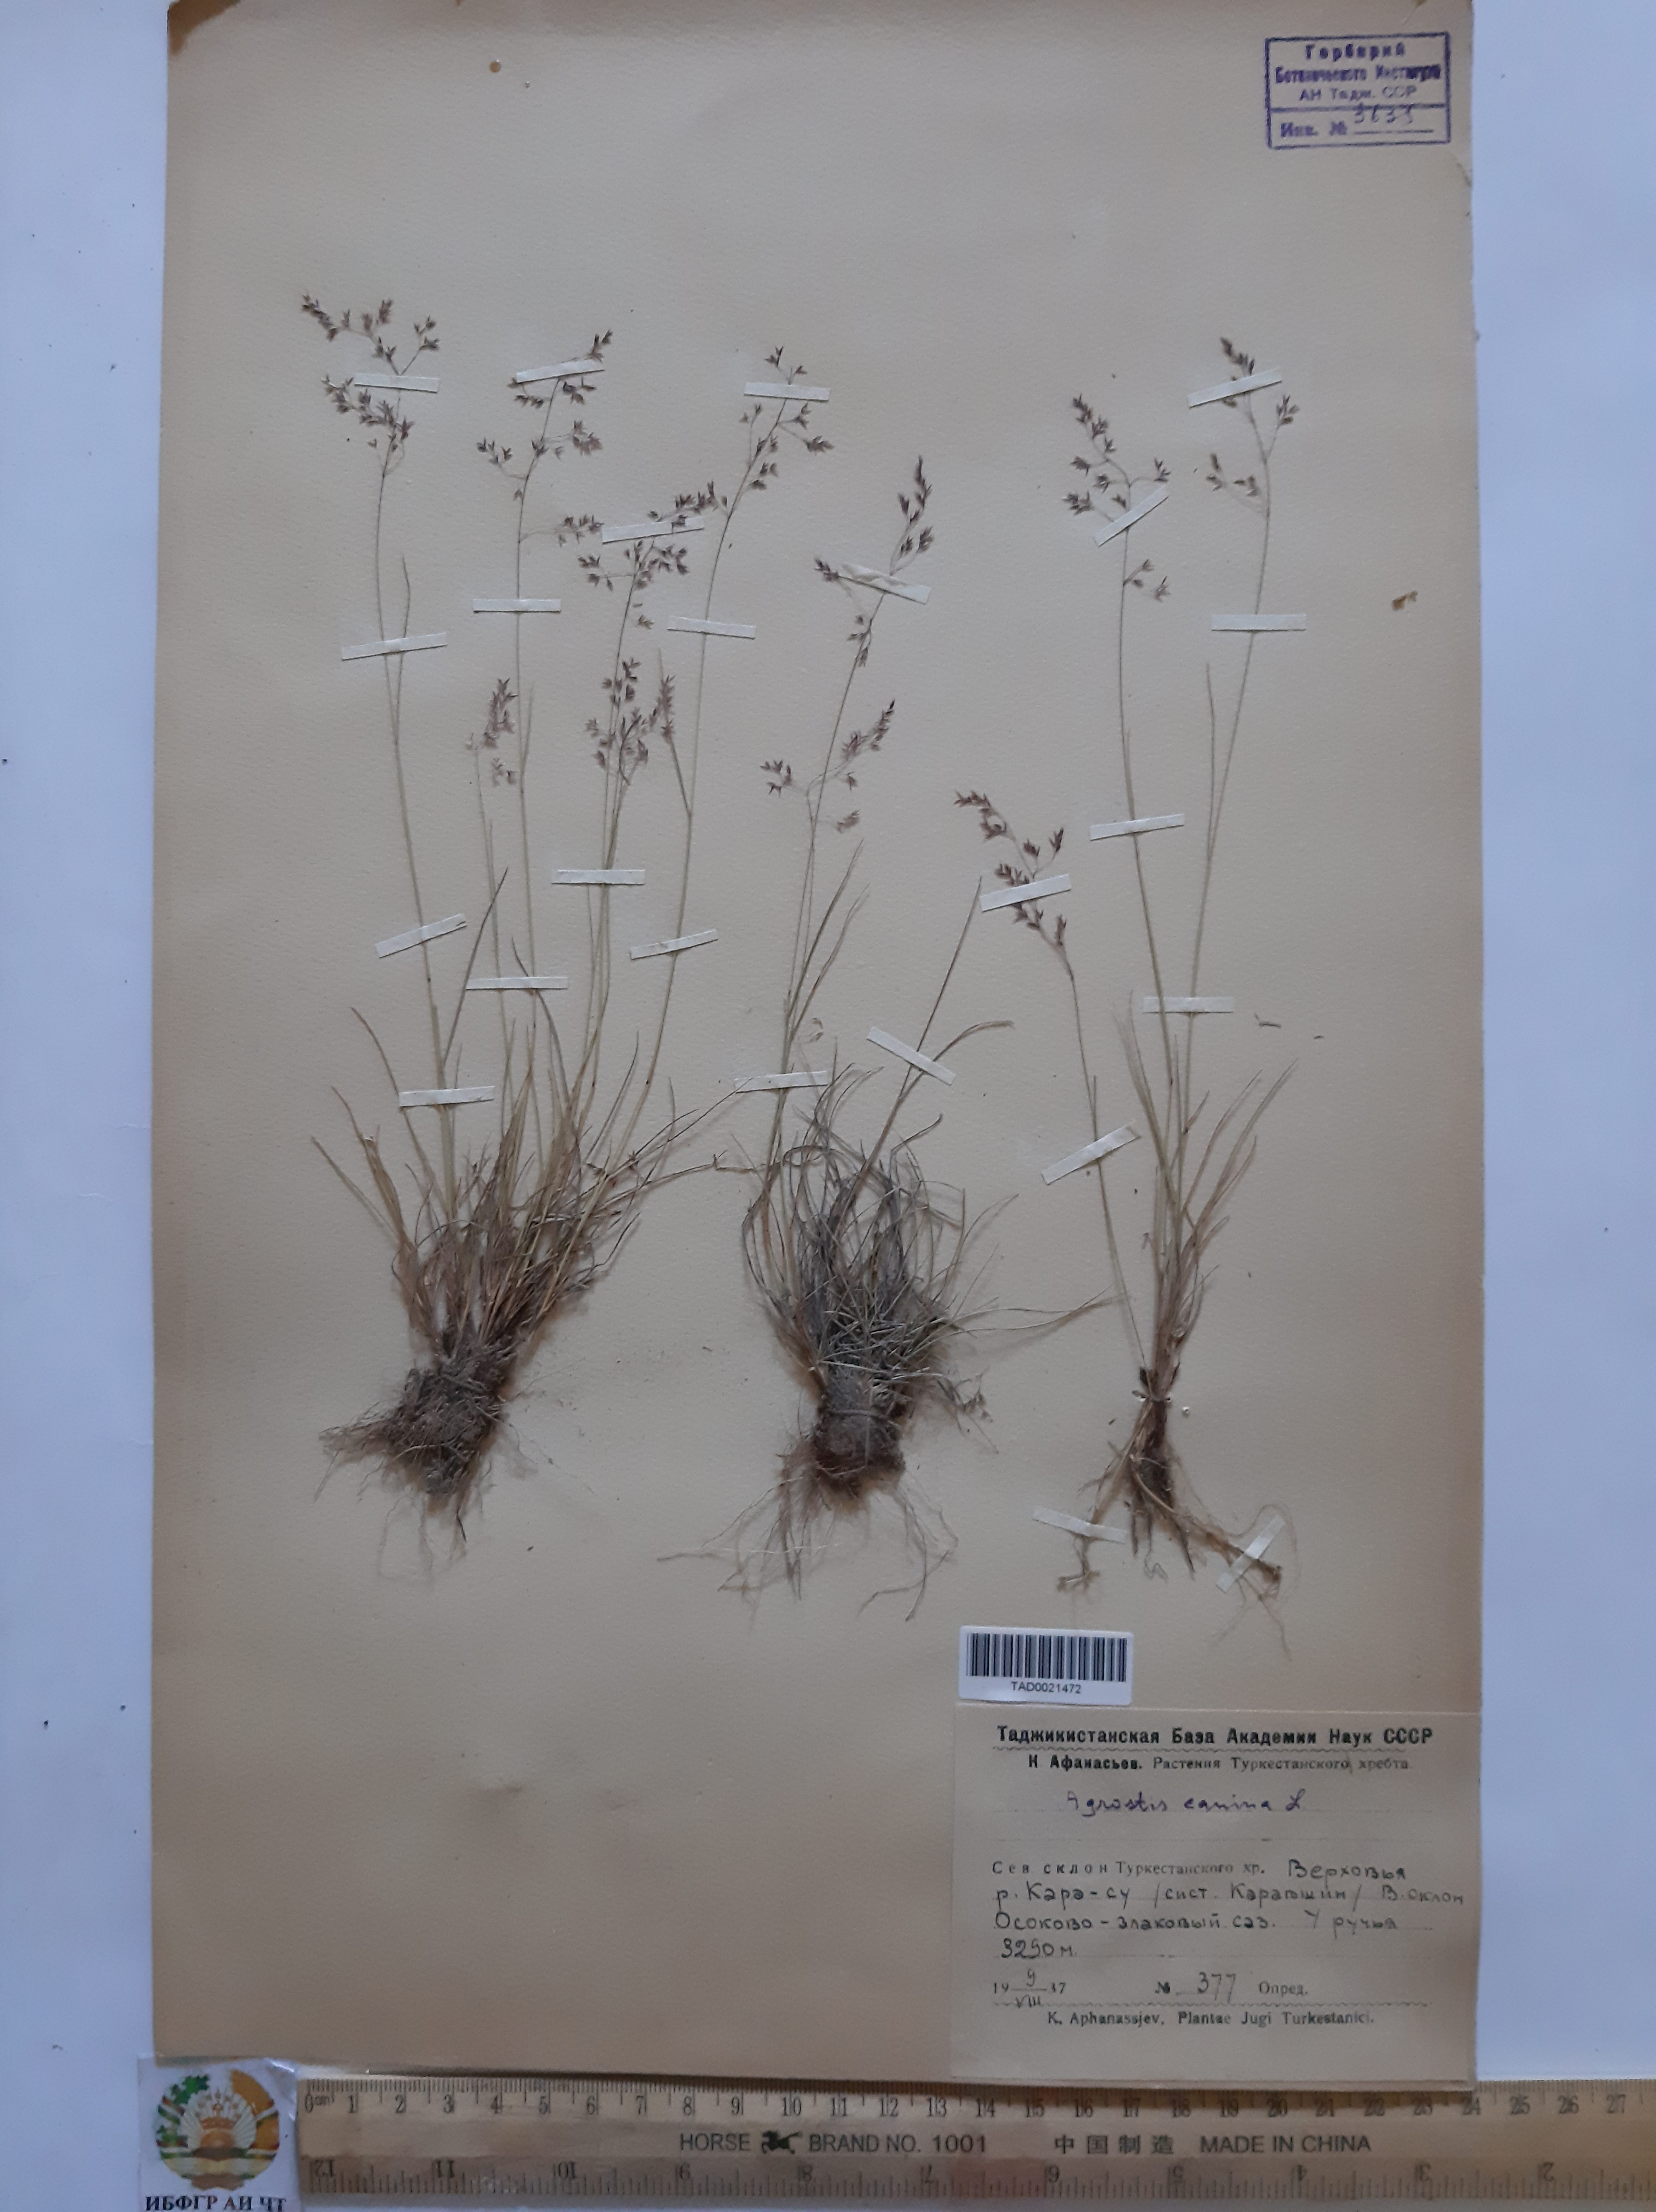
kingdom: Plantae
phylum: Tracheophyta
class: Liliopsida
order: Poales
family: Poaceae
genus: Agrostis
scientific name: Agrostis canina
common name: Velvet bent
